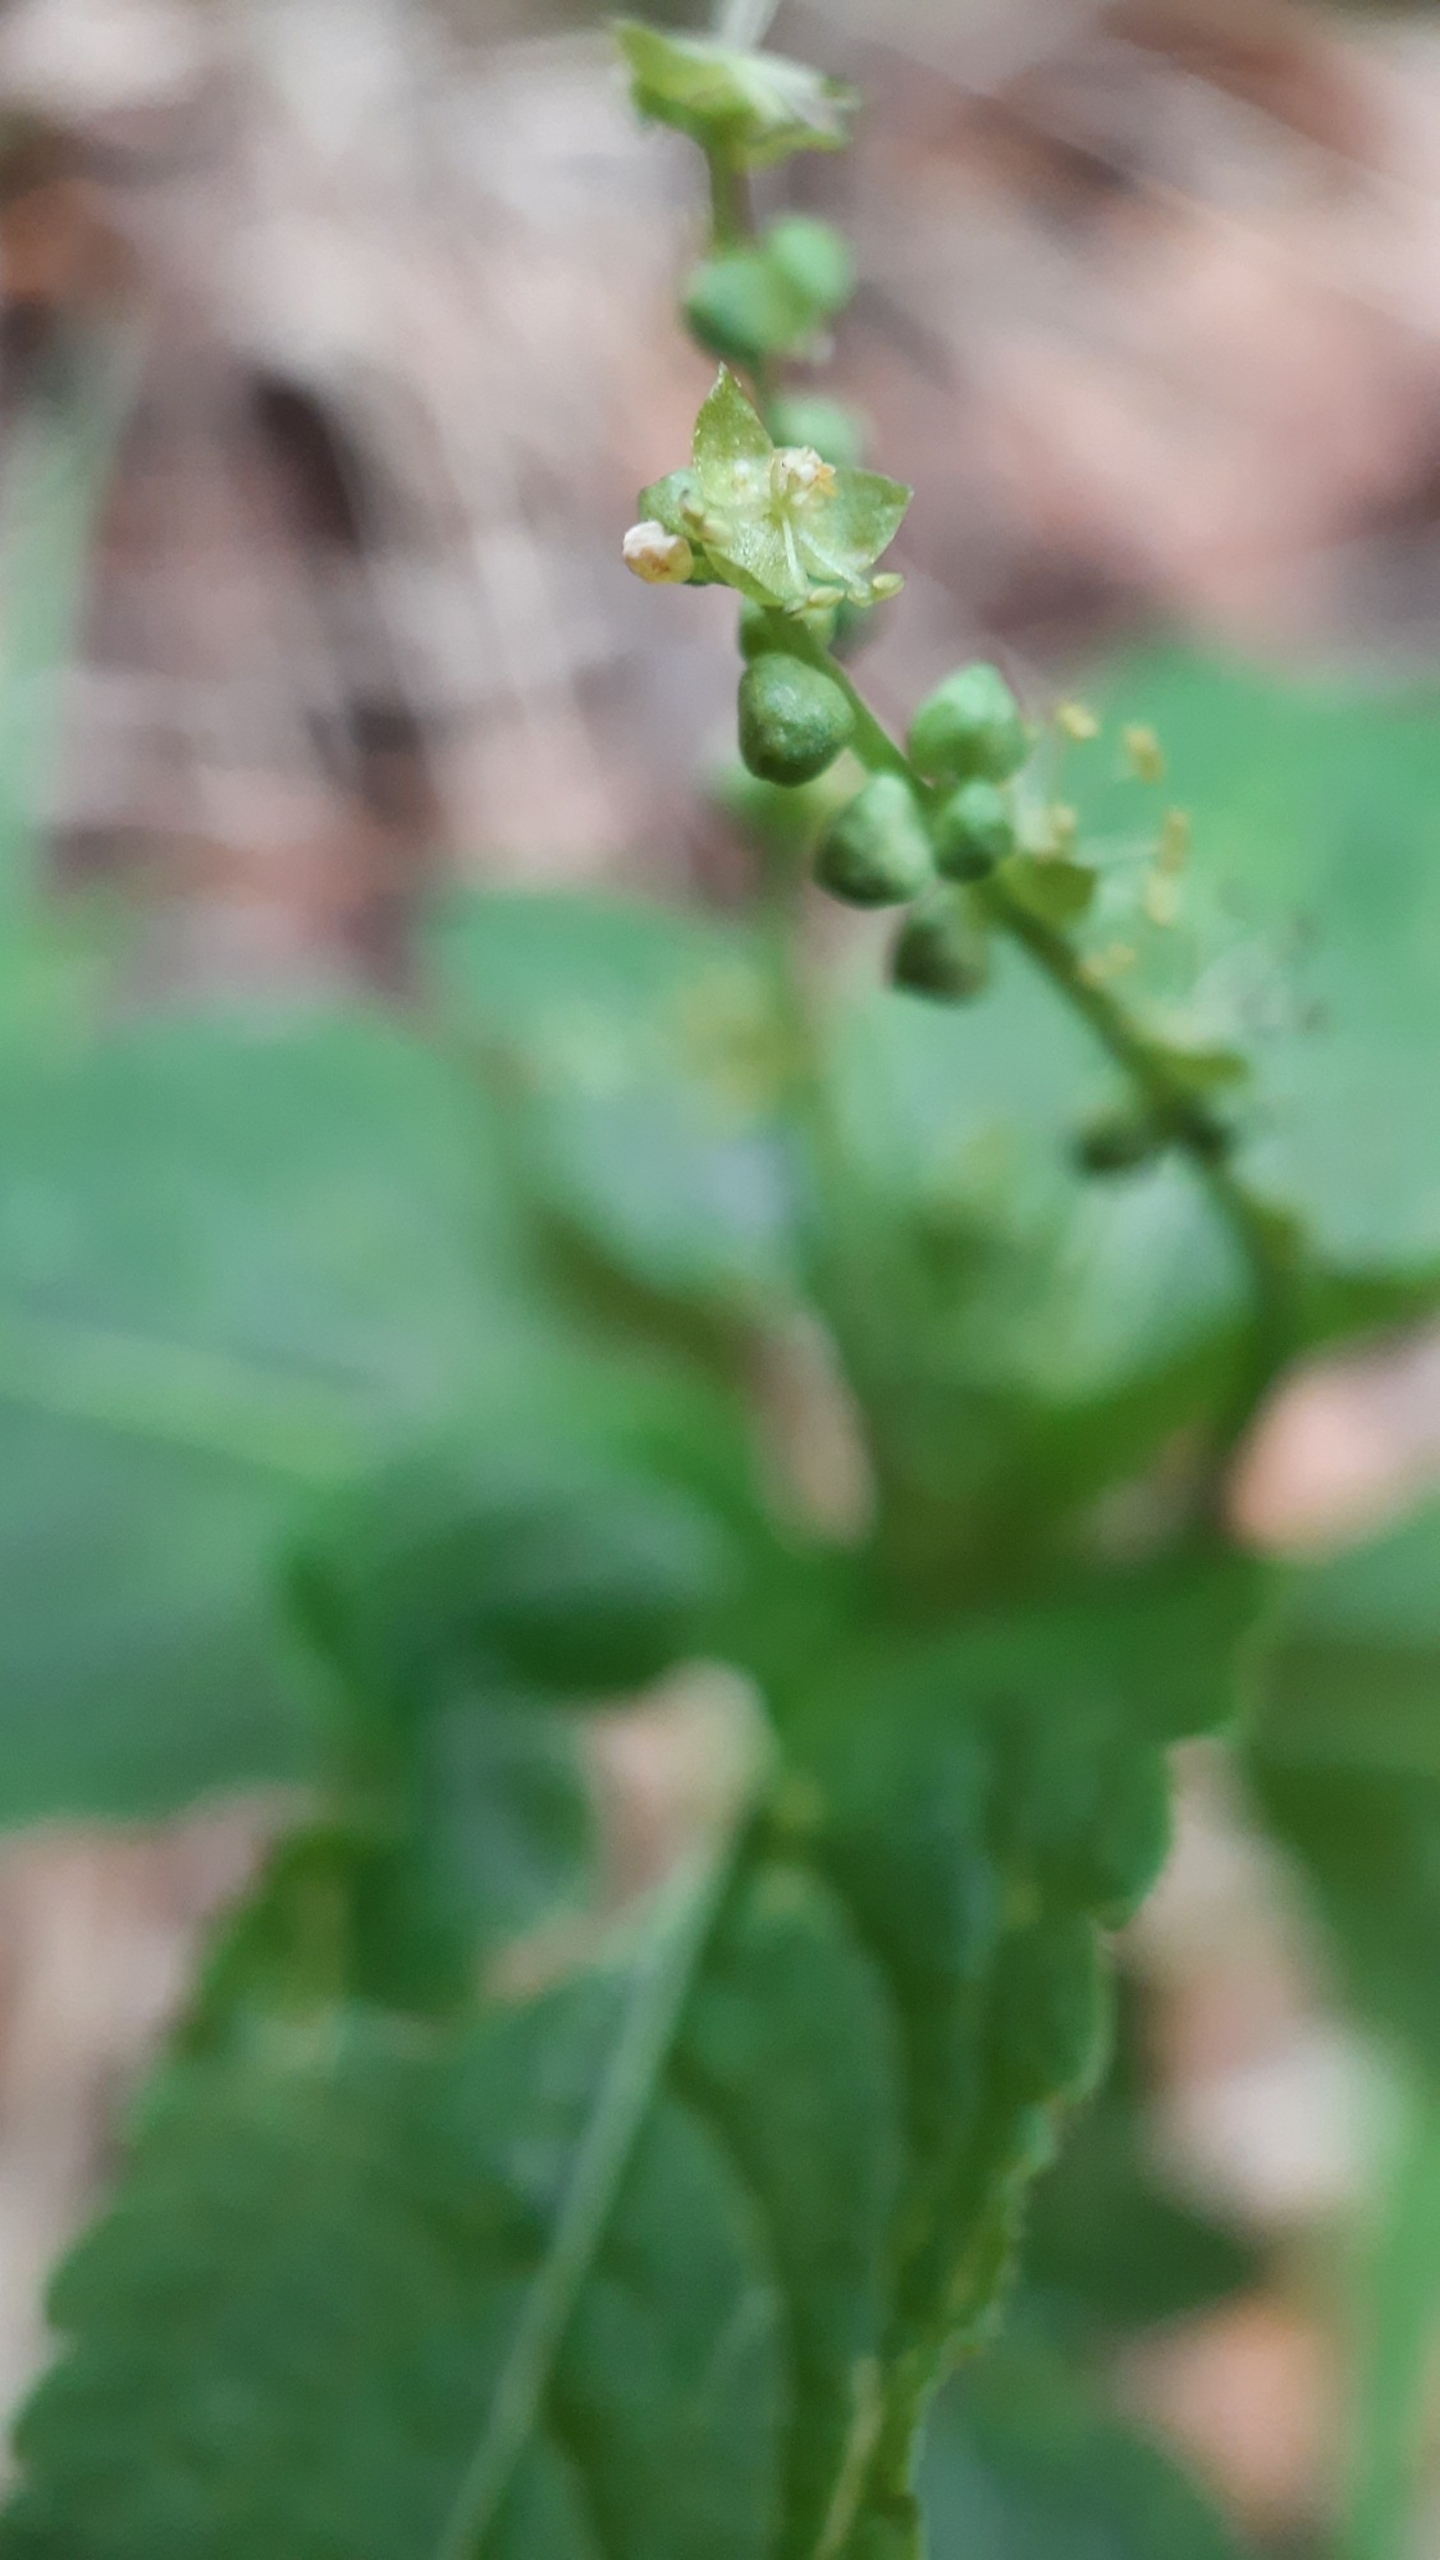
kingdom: Plantae
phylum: Tracheophyta
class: Magnoliopsida
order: Malpighiales
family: Euphorbiaceae
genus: Mercurialis
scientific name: Mercurialis perennis
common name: Almindelig bingelurt
